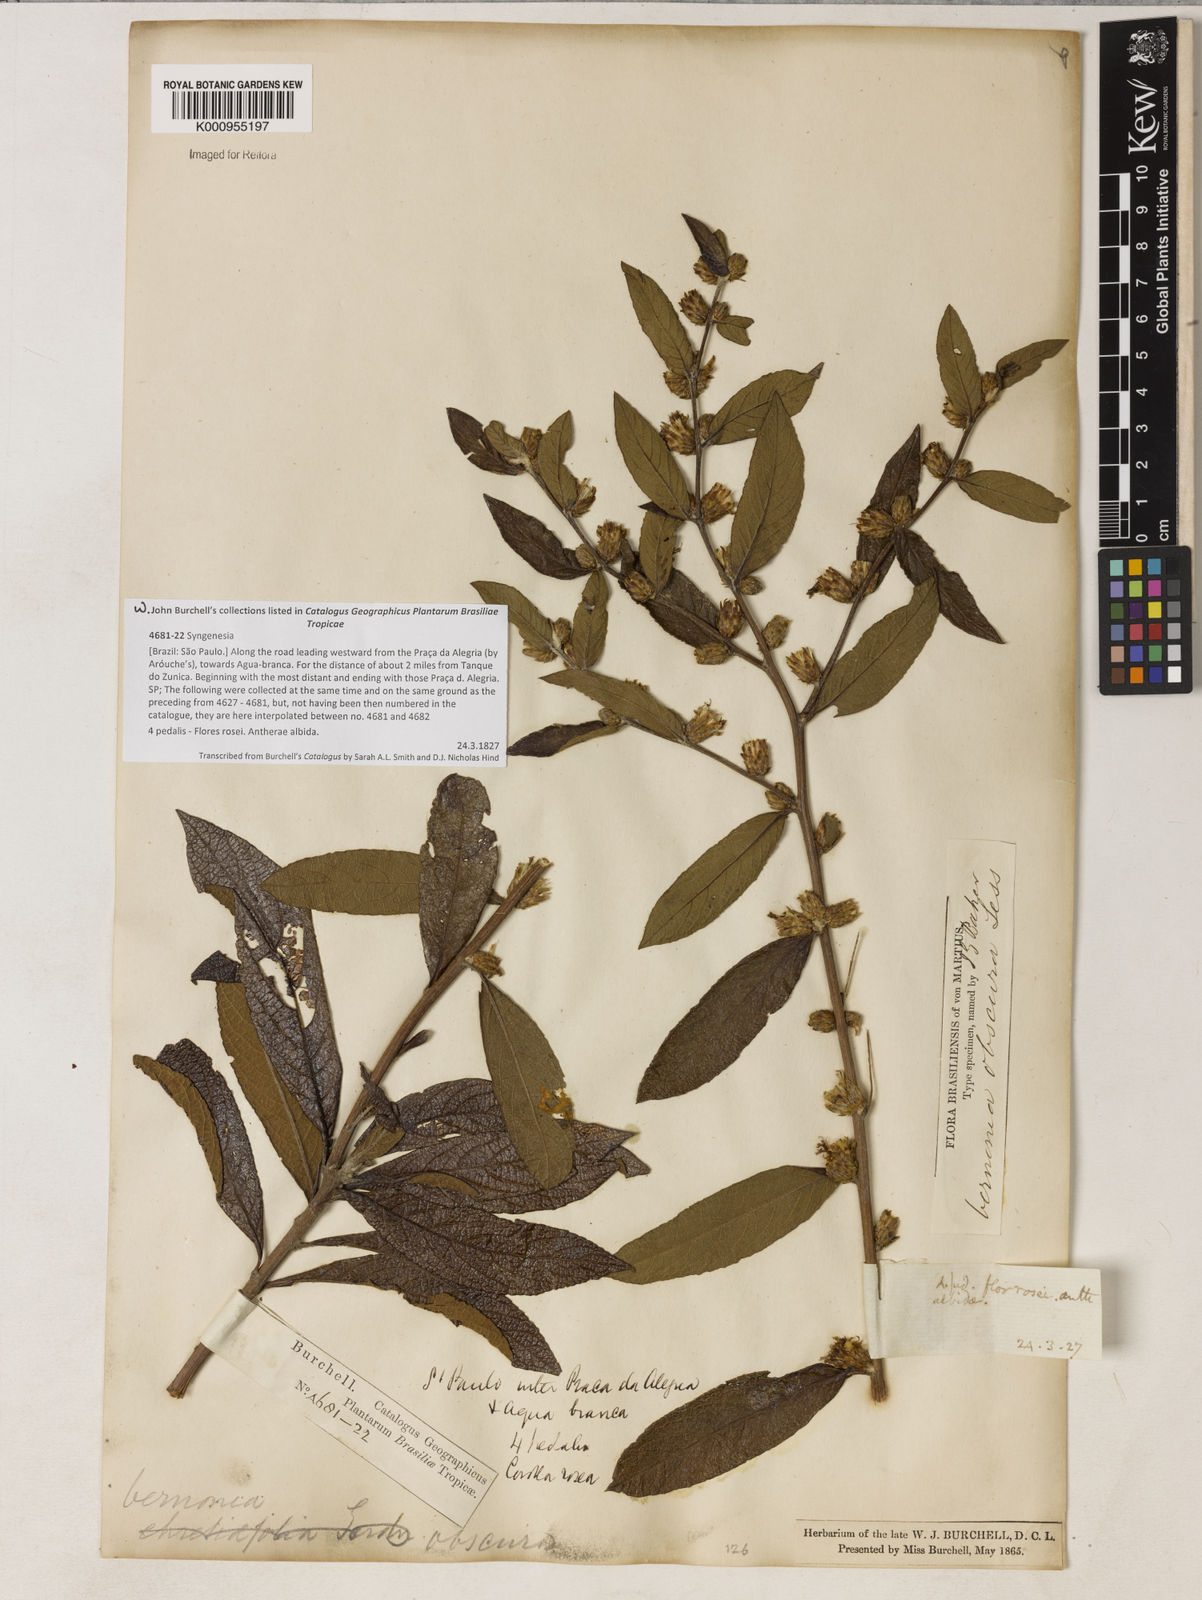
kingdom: Plantae
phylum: Tracheophyta
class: Magnoliopsida
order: Asterales
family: Asteraceae
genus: Lessingianthus
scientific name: Lessingianthus obscurus
